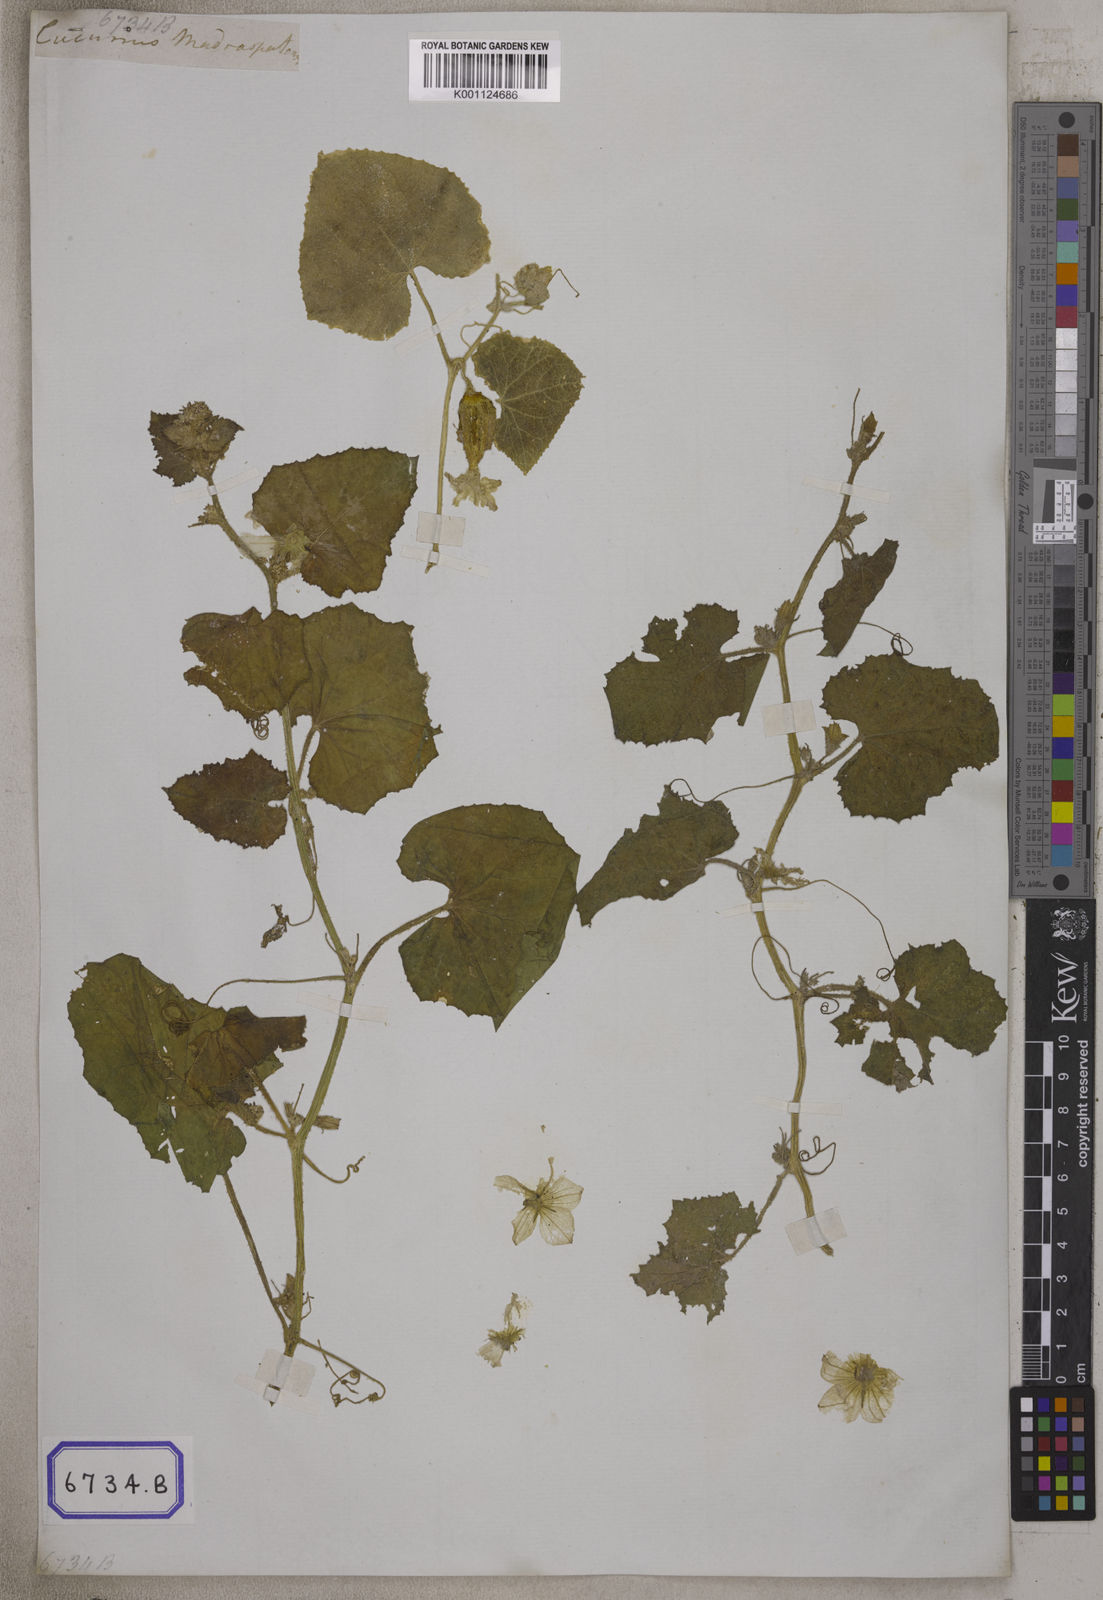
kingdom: Plantae
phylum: Tracheophyta
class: Magnoliopsida
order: Cucurbitales
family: Cucurbitaceae
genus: Cucumis
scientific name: Cucumis
